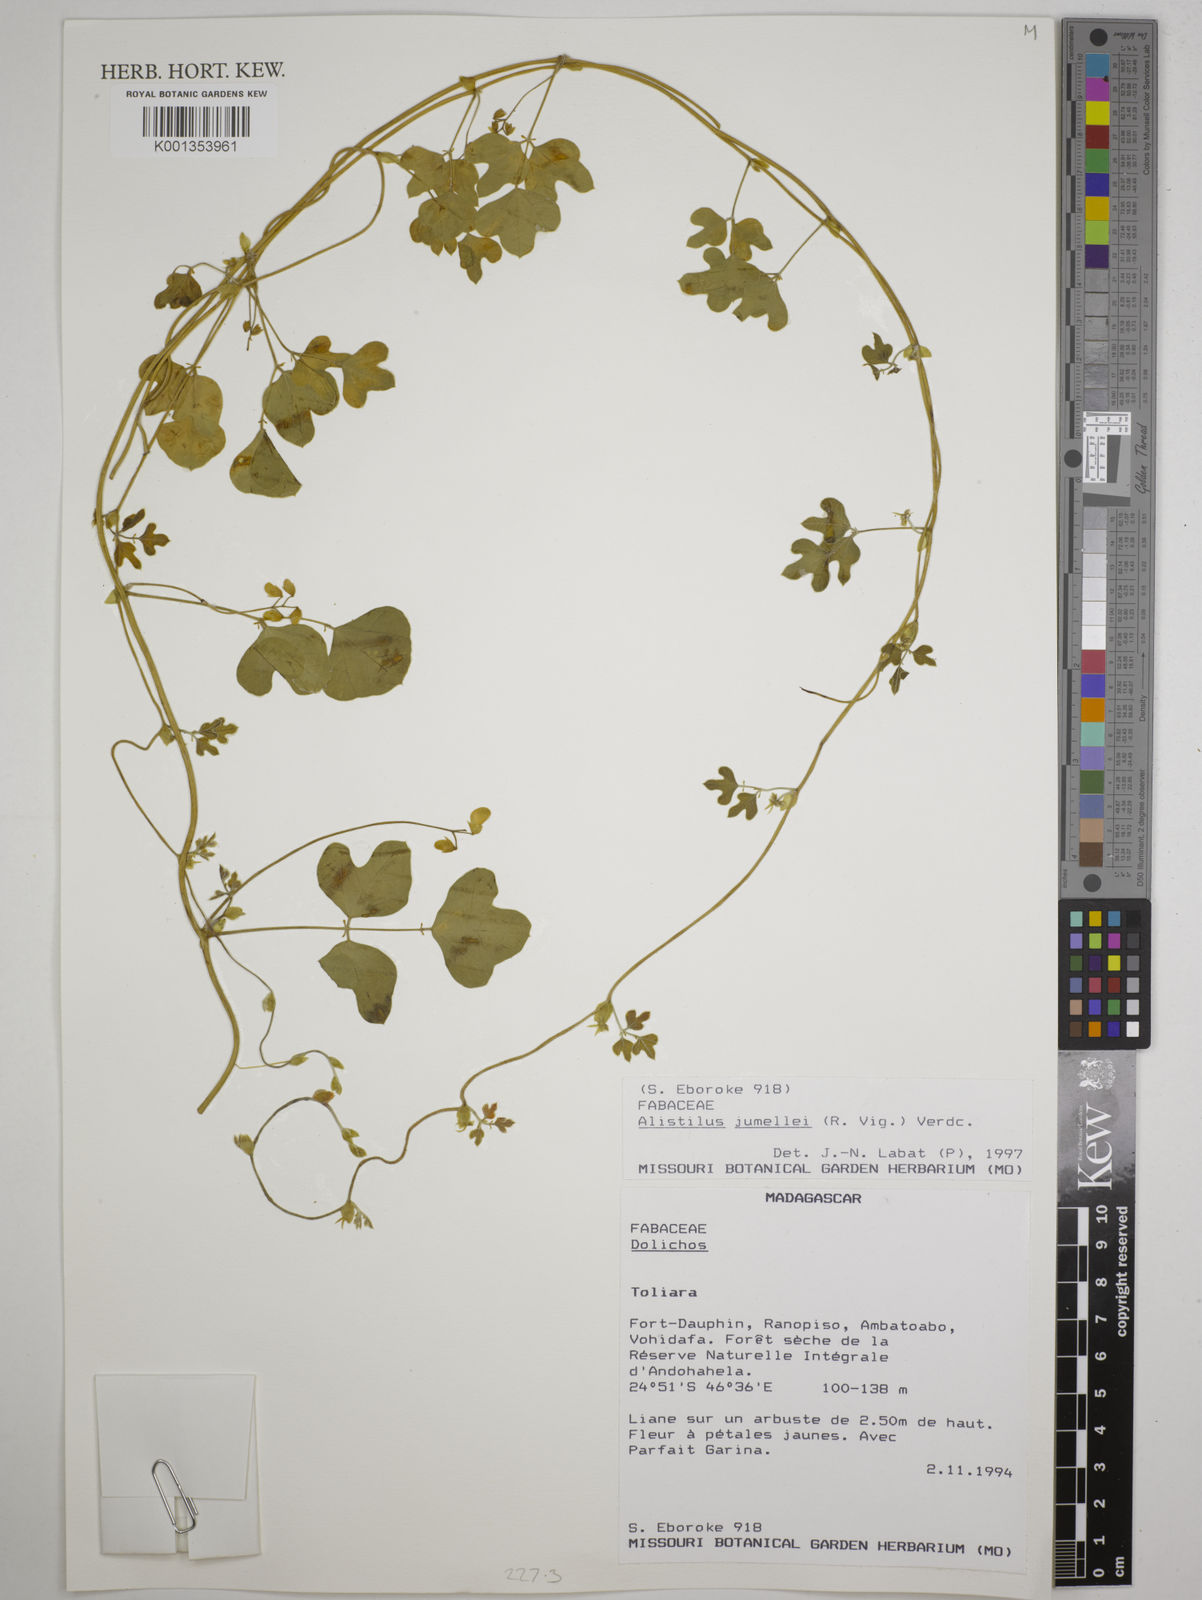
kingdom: Plantae
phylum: Tracheophyta
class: Magnoliopsida
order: Fabales
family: Fabaceae
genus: Alistilus
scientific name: Alistilus jumellei
